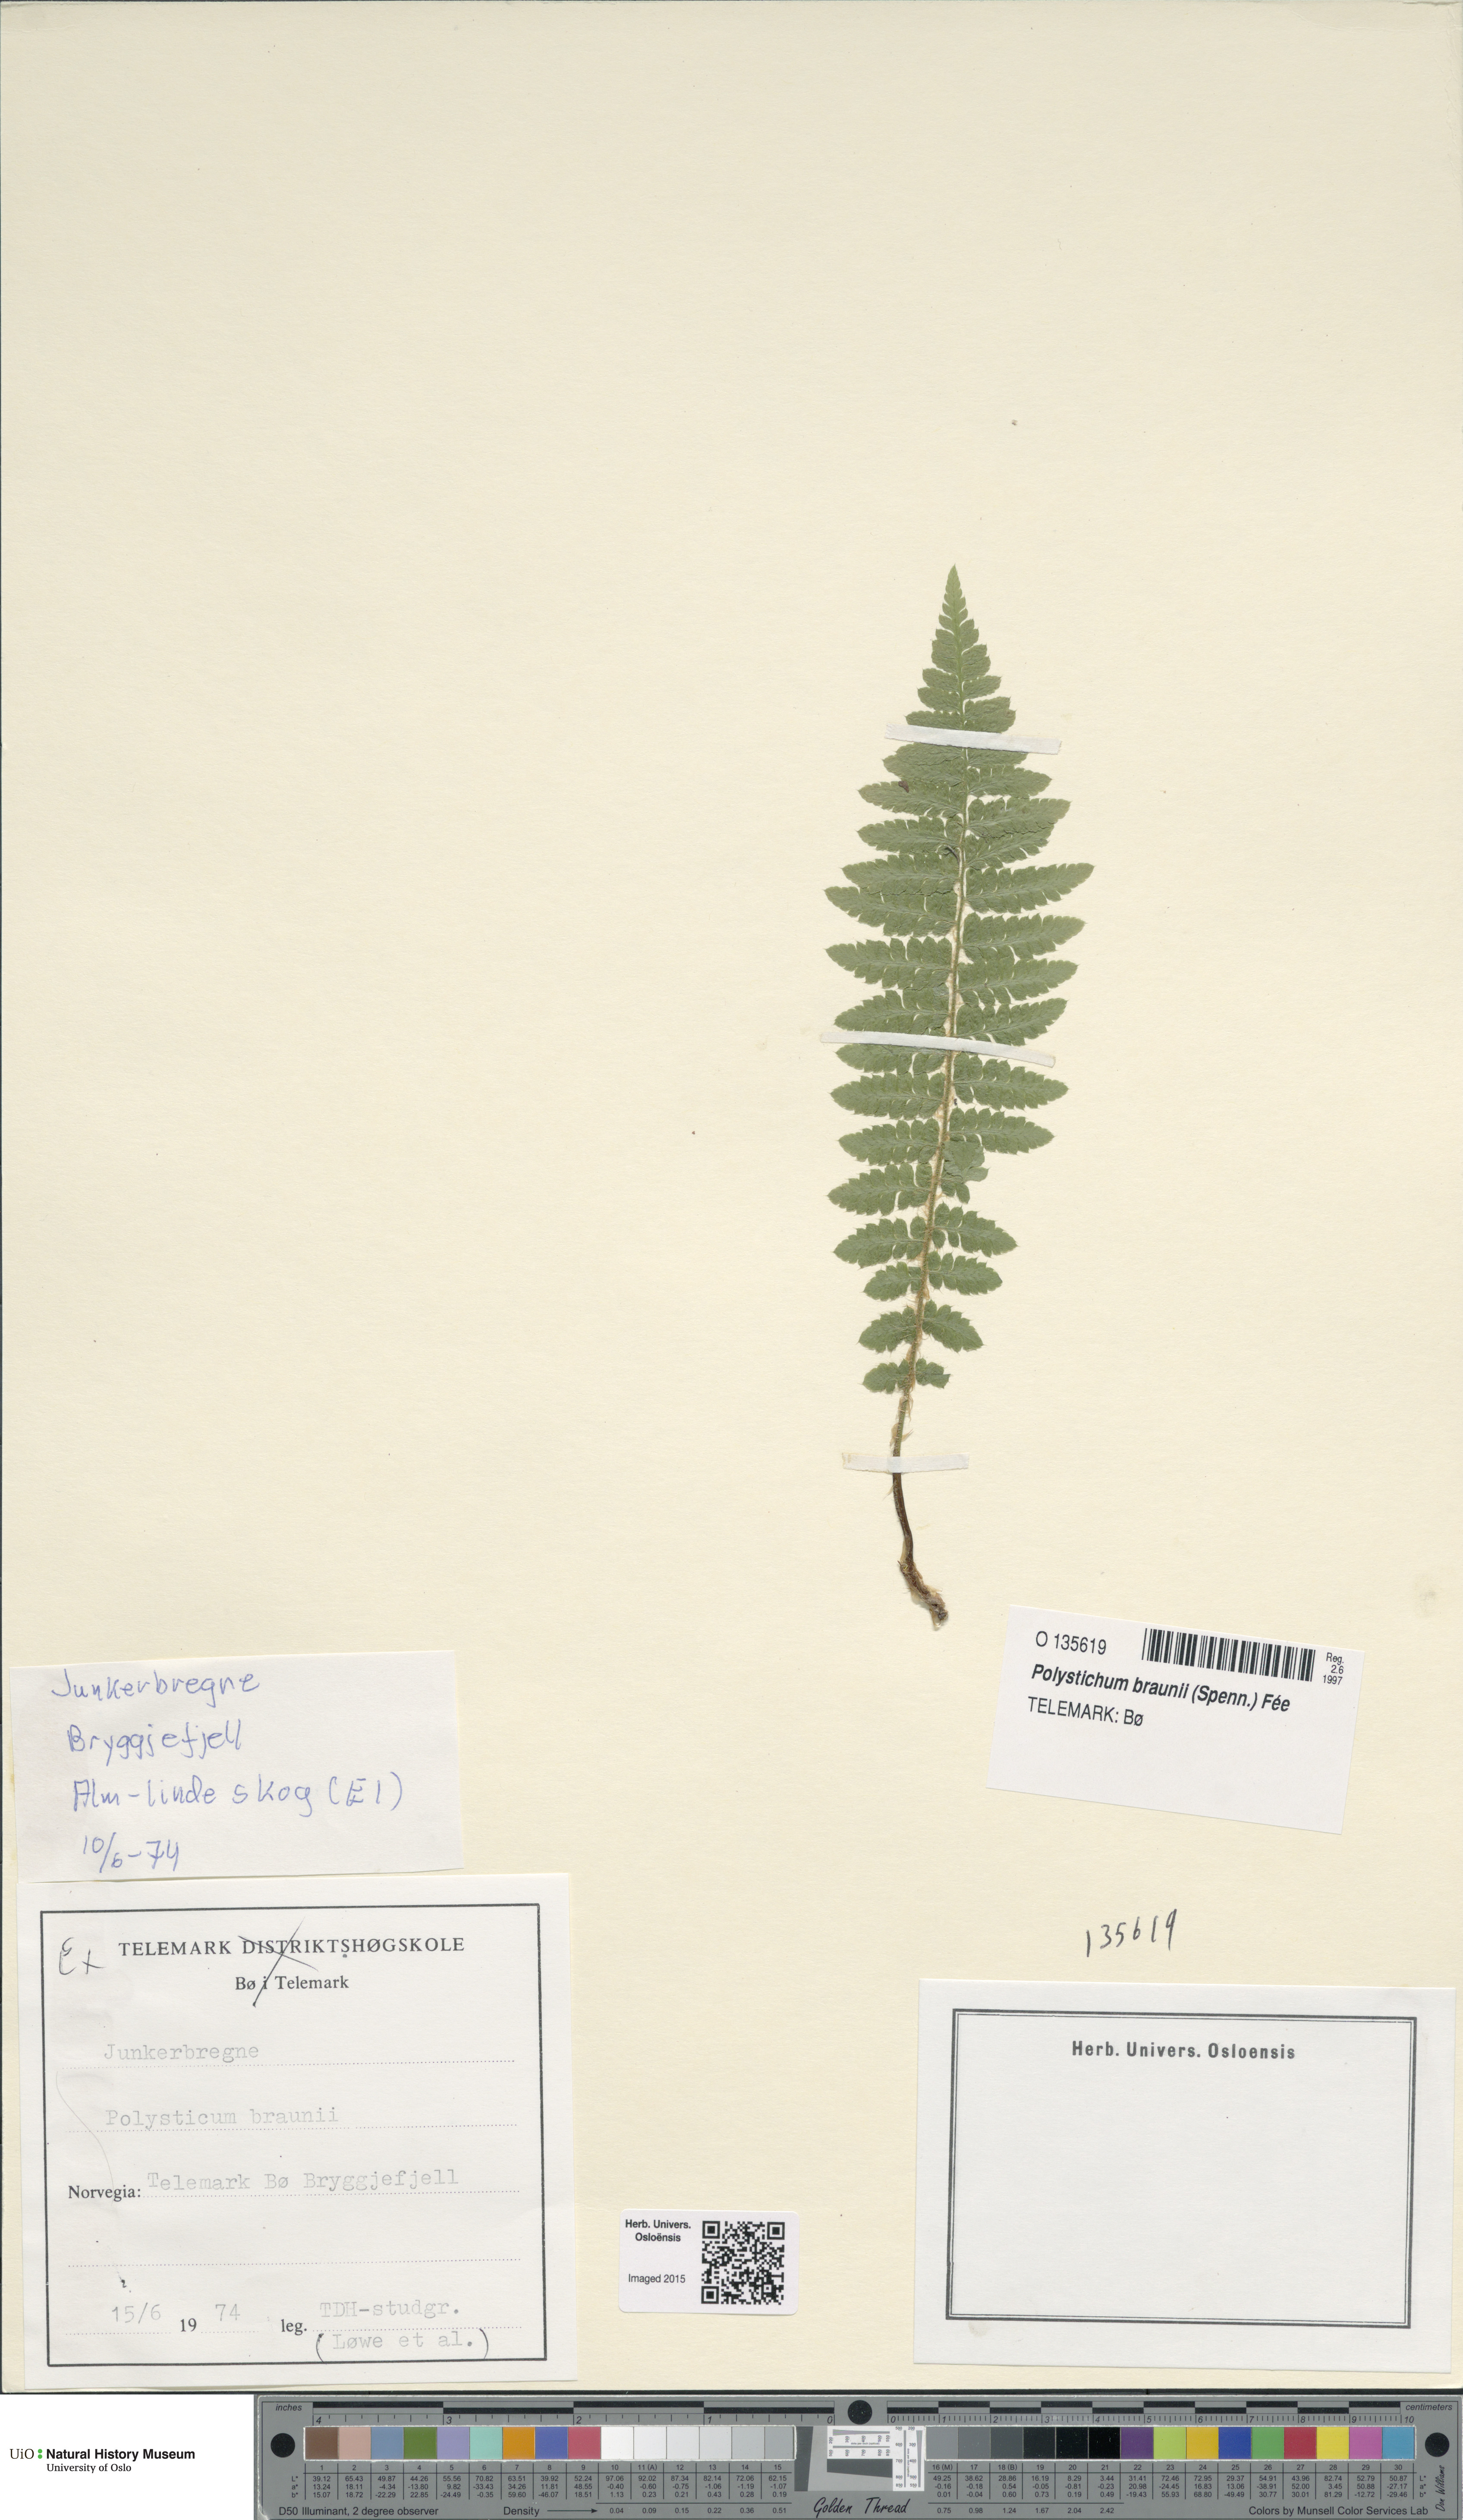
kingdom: Plantae
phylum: Tracheophyta
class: Polypodiopsida
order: Polypodiales
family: Dryopteridaceae
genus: Polystichum
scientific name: Polystichum braunii
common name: Braun's holly fern
